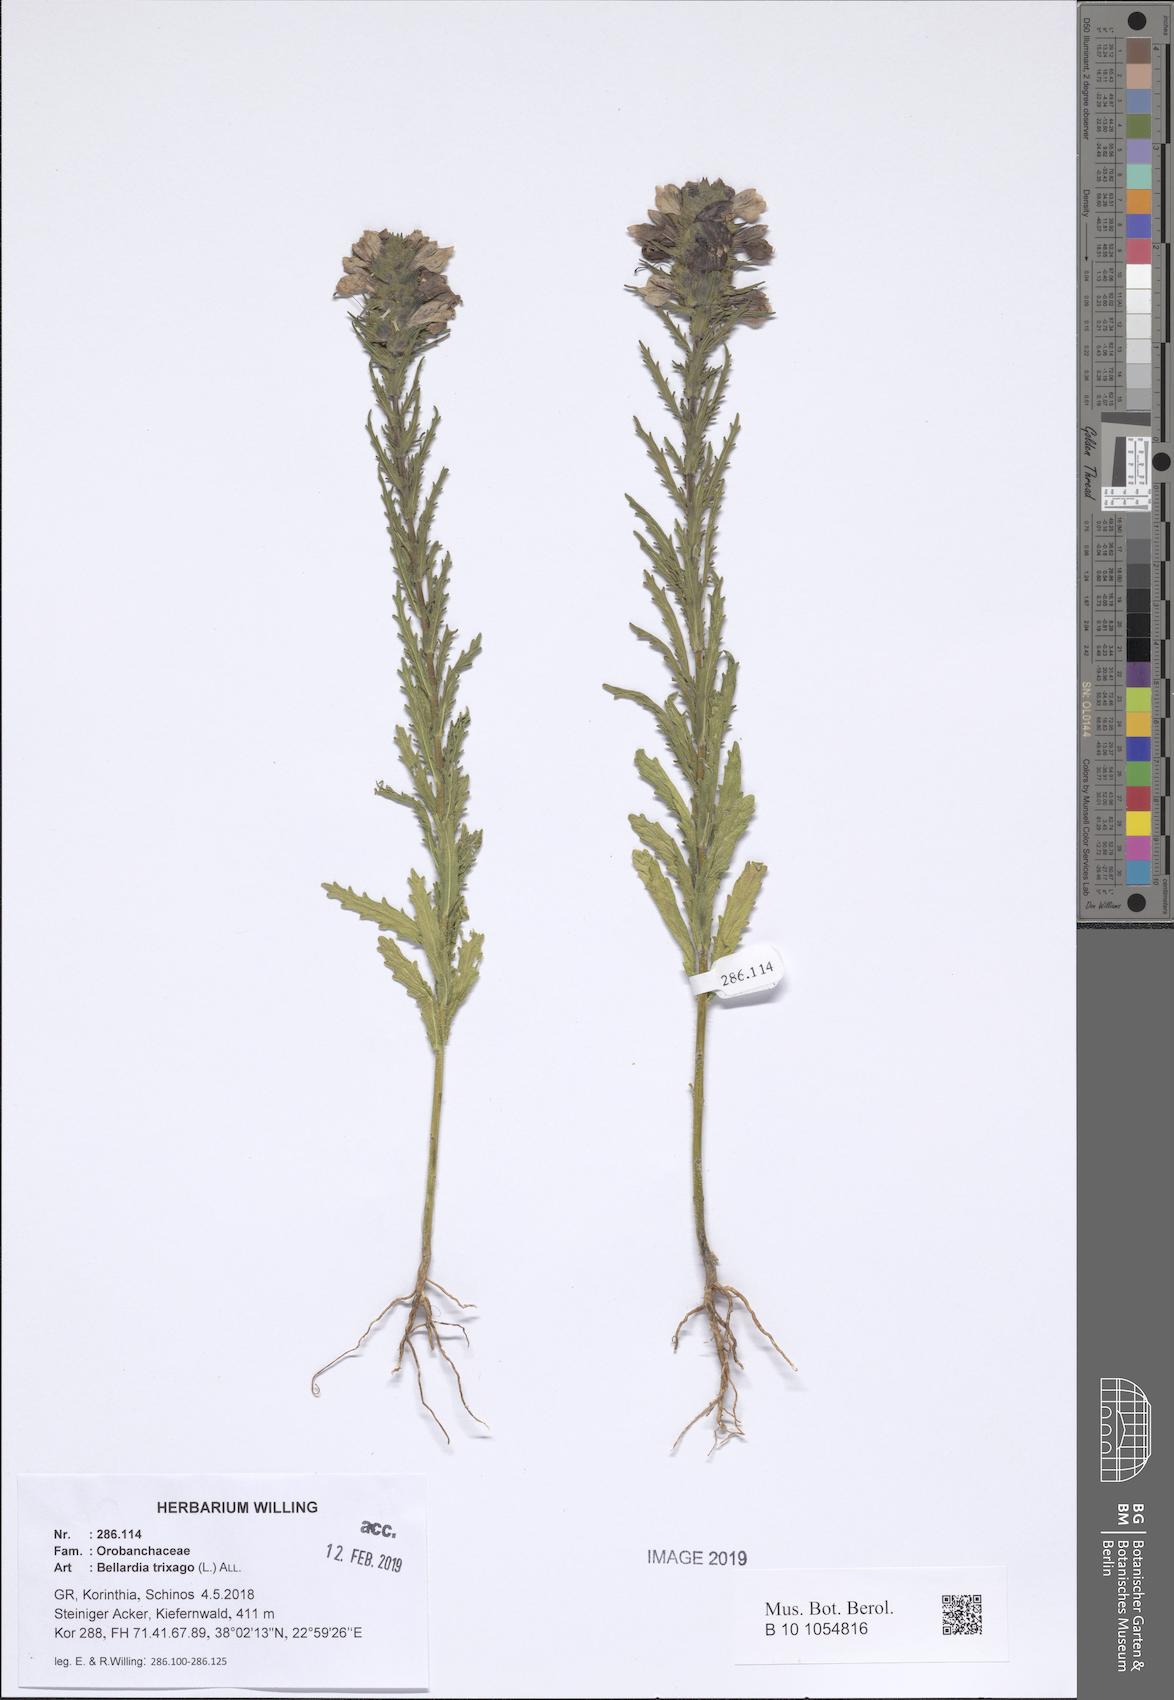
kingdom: Plantae
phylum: Tracheophyta
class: Magnoliopsida
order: Lamiales
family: Orobanchaceae
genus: Bellardia
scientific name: Bellardia trixago
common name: Mediterranean lineseed
